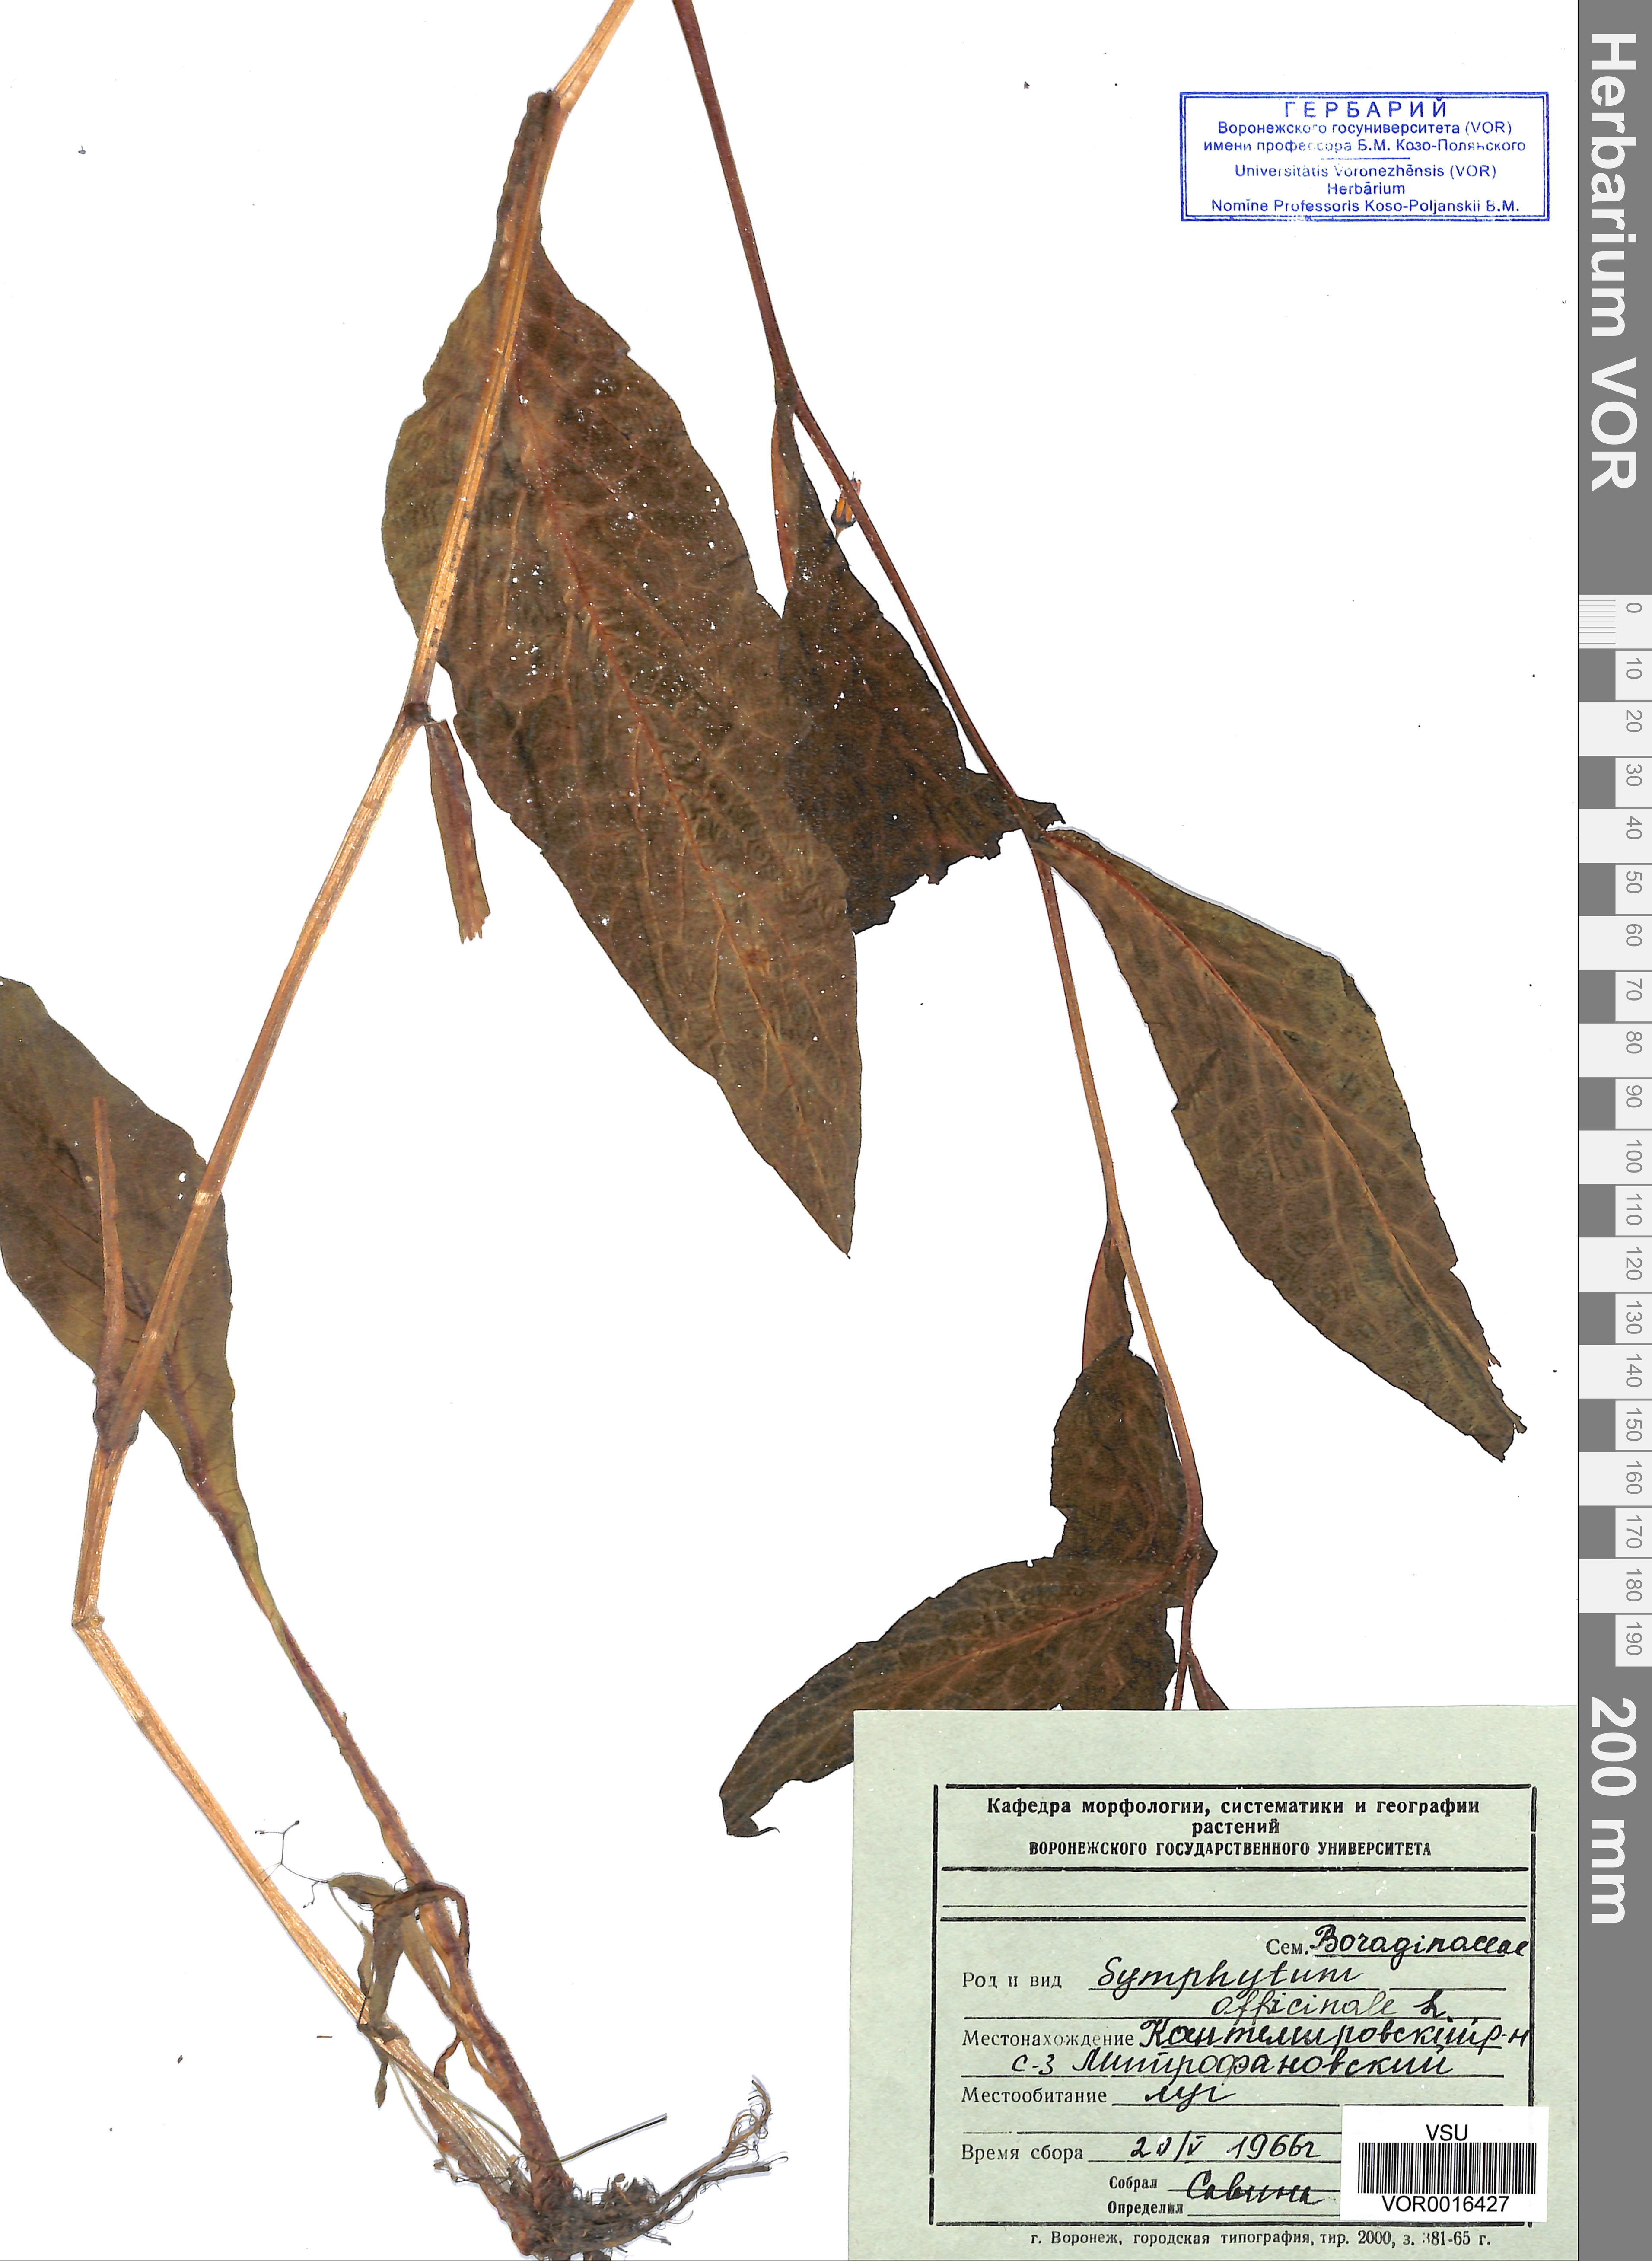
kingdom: Plantae
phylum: Tracheophyta
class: Magnoliopsida
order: Boraginales
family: Boraginaceae
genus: Symphytum
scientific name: Symphytum officinale
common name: Common comfrey
